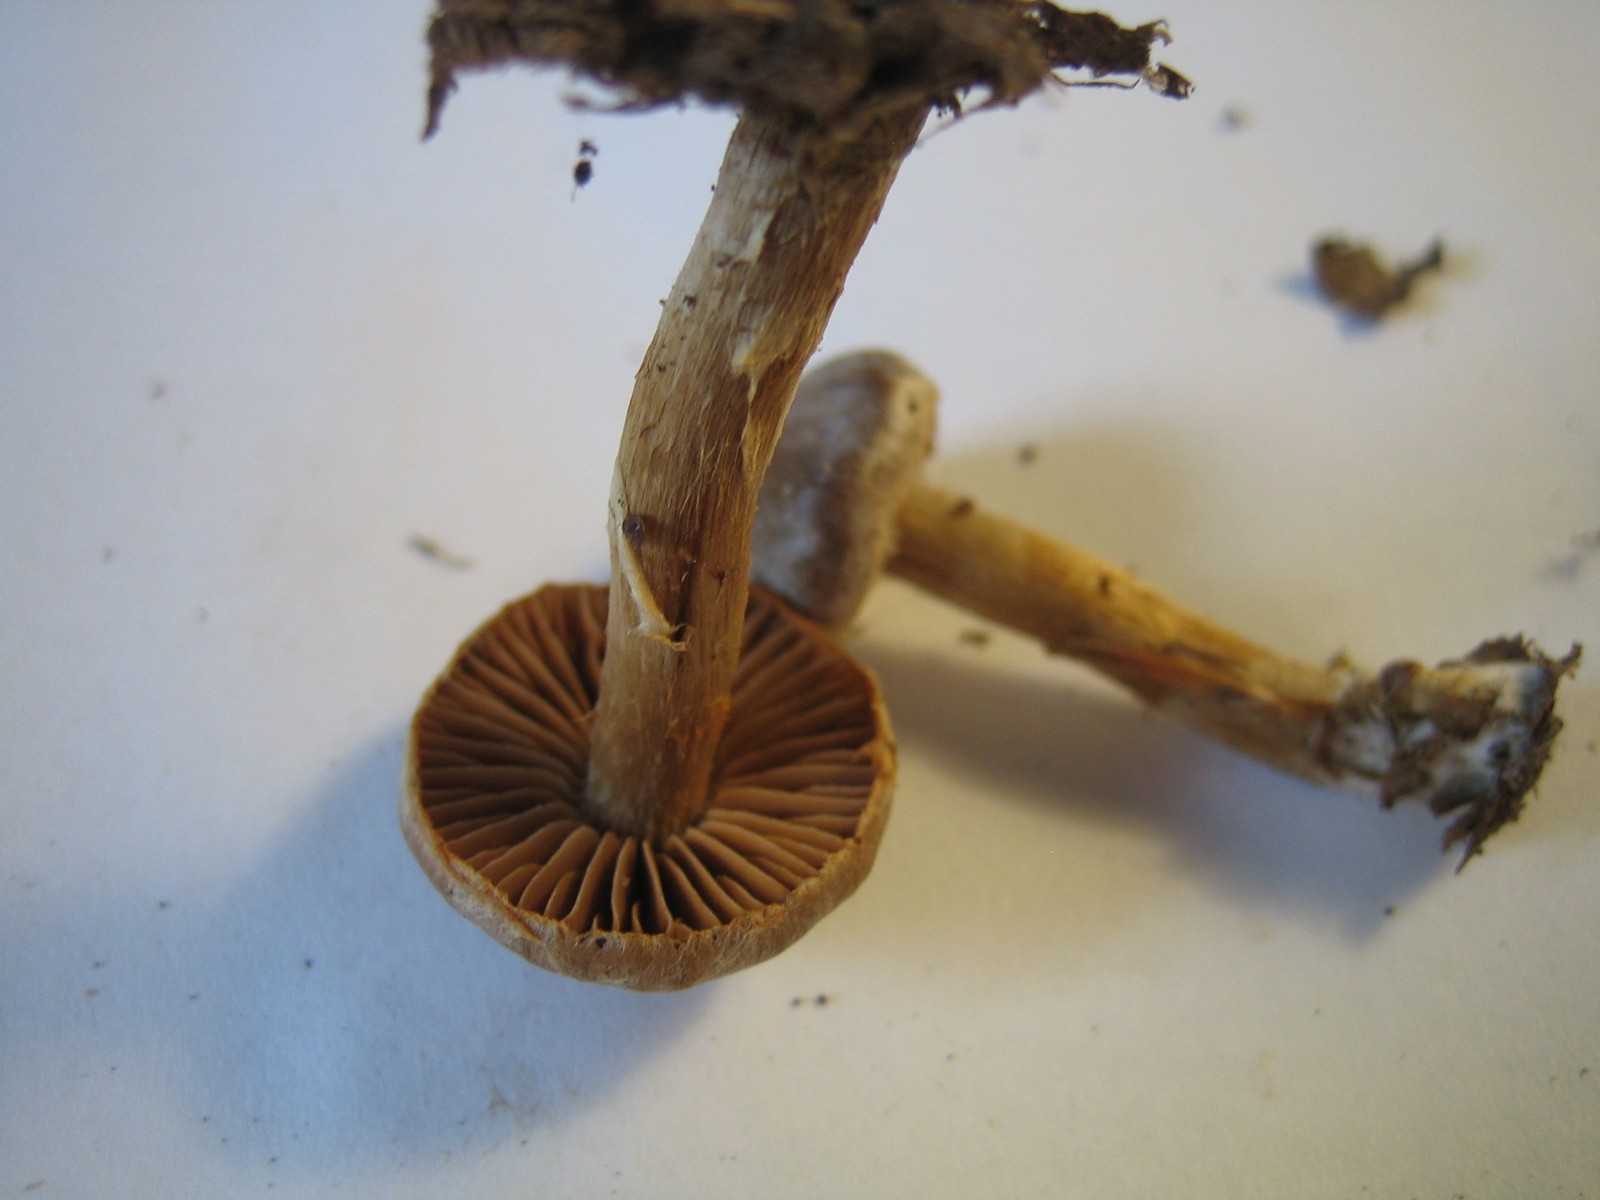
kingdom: Fungi
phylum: Basidiomycota
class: Agaricomycetes
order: Agaricales
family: Cortinariaceae
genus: Cortinarius
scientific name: Cortinarius
